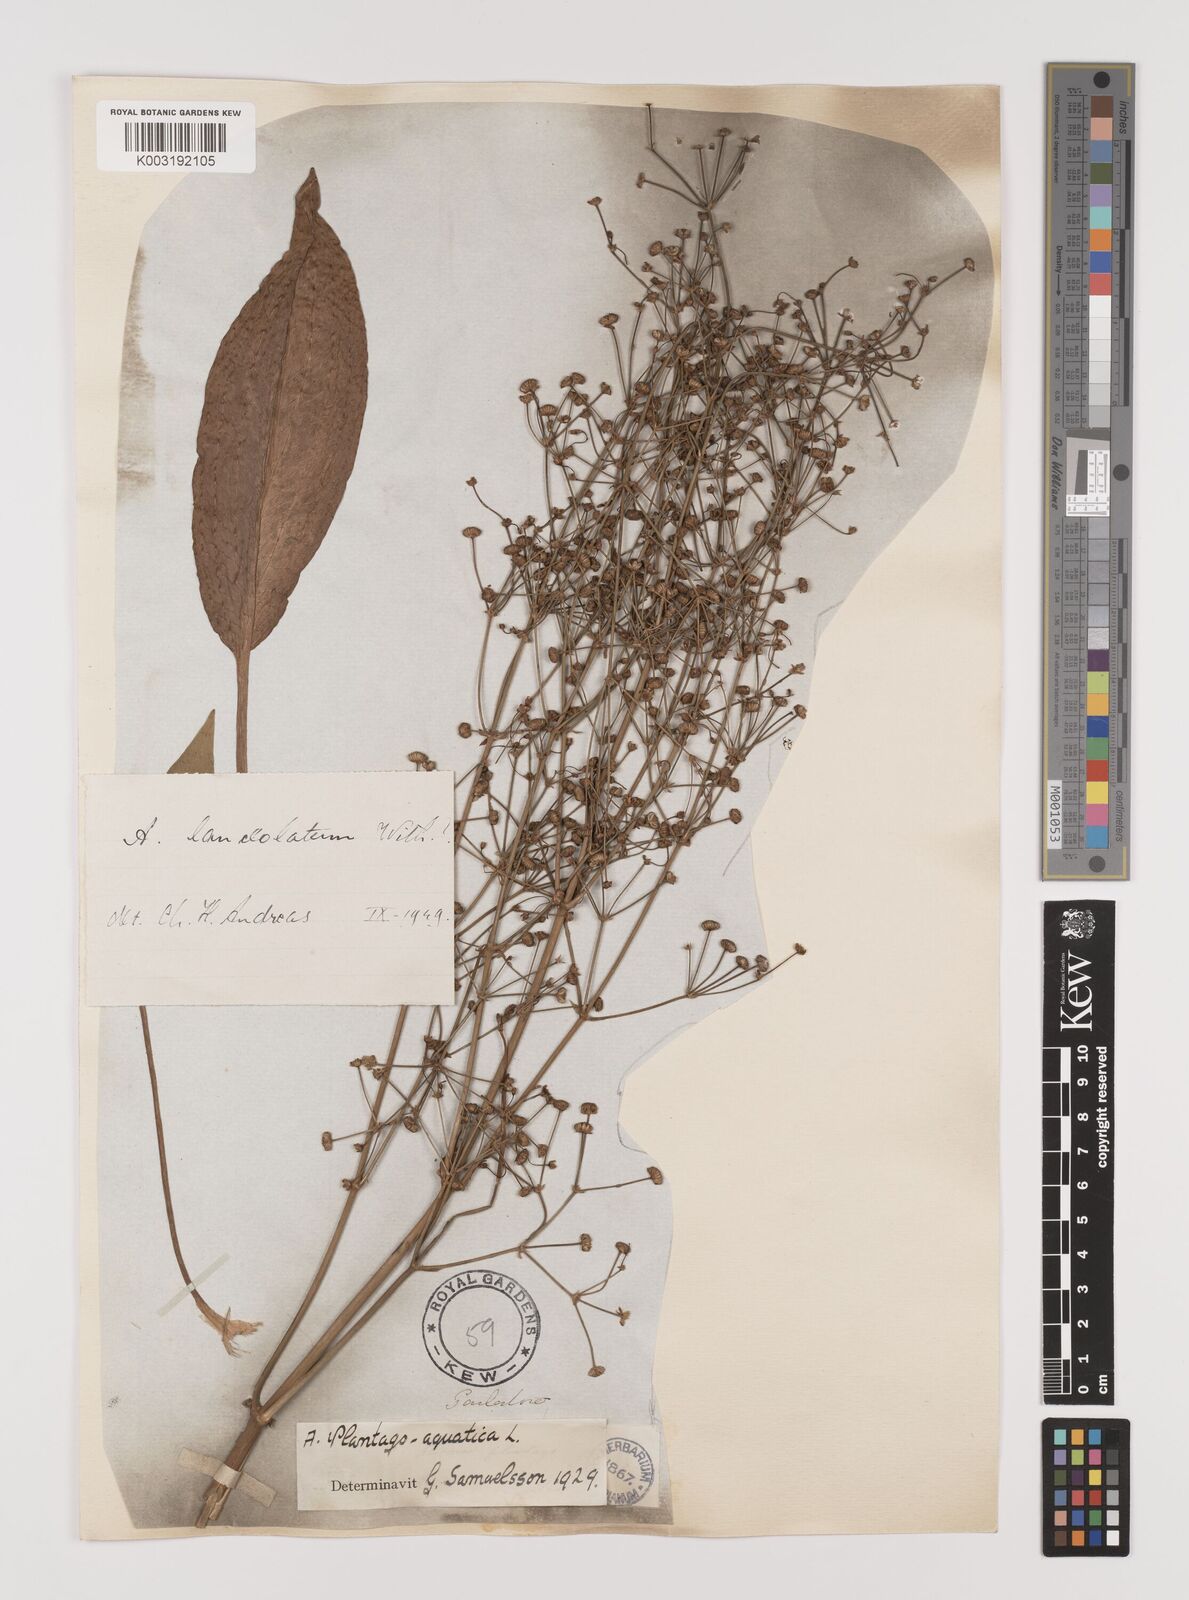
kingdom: Plantae
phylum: Tracheophyta
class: Liliopsida
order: Alismatales
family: Alismataceae
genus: Alisma
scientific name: Alisma plantago-aquatica
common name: Water-plantain
